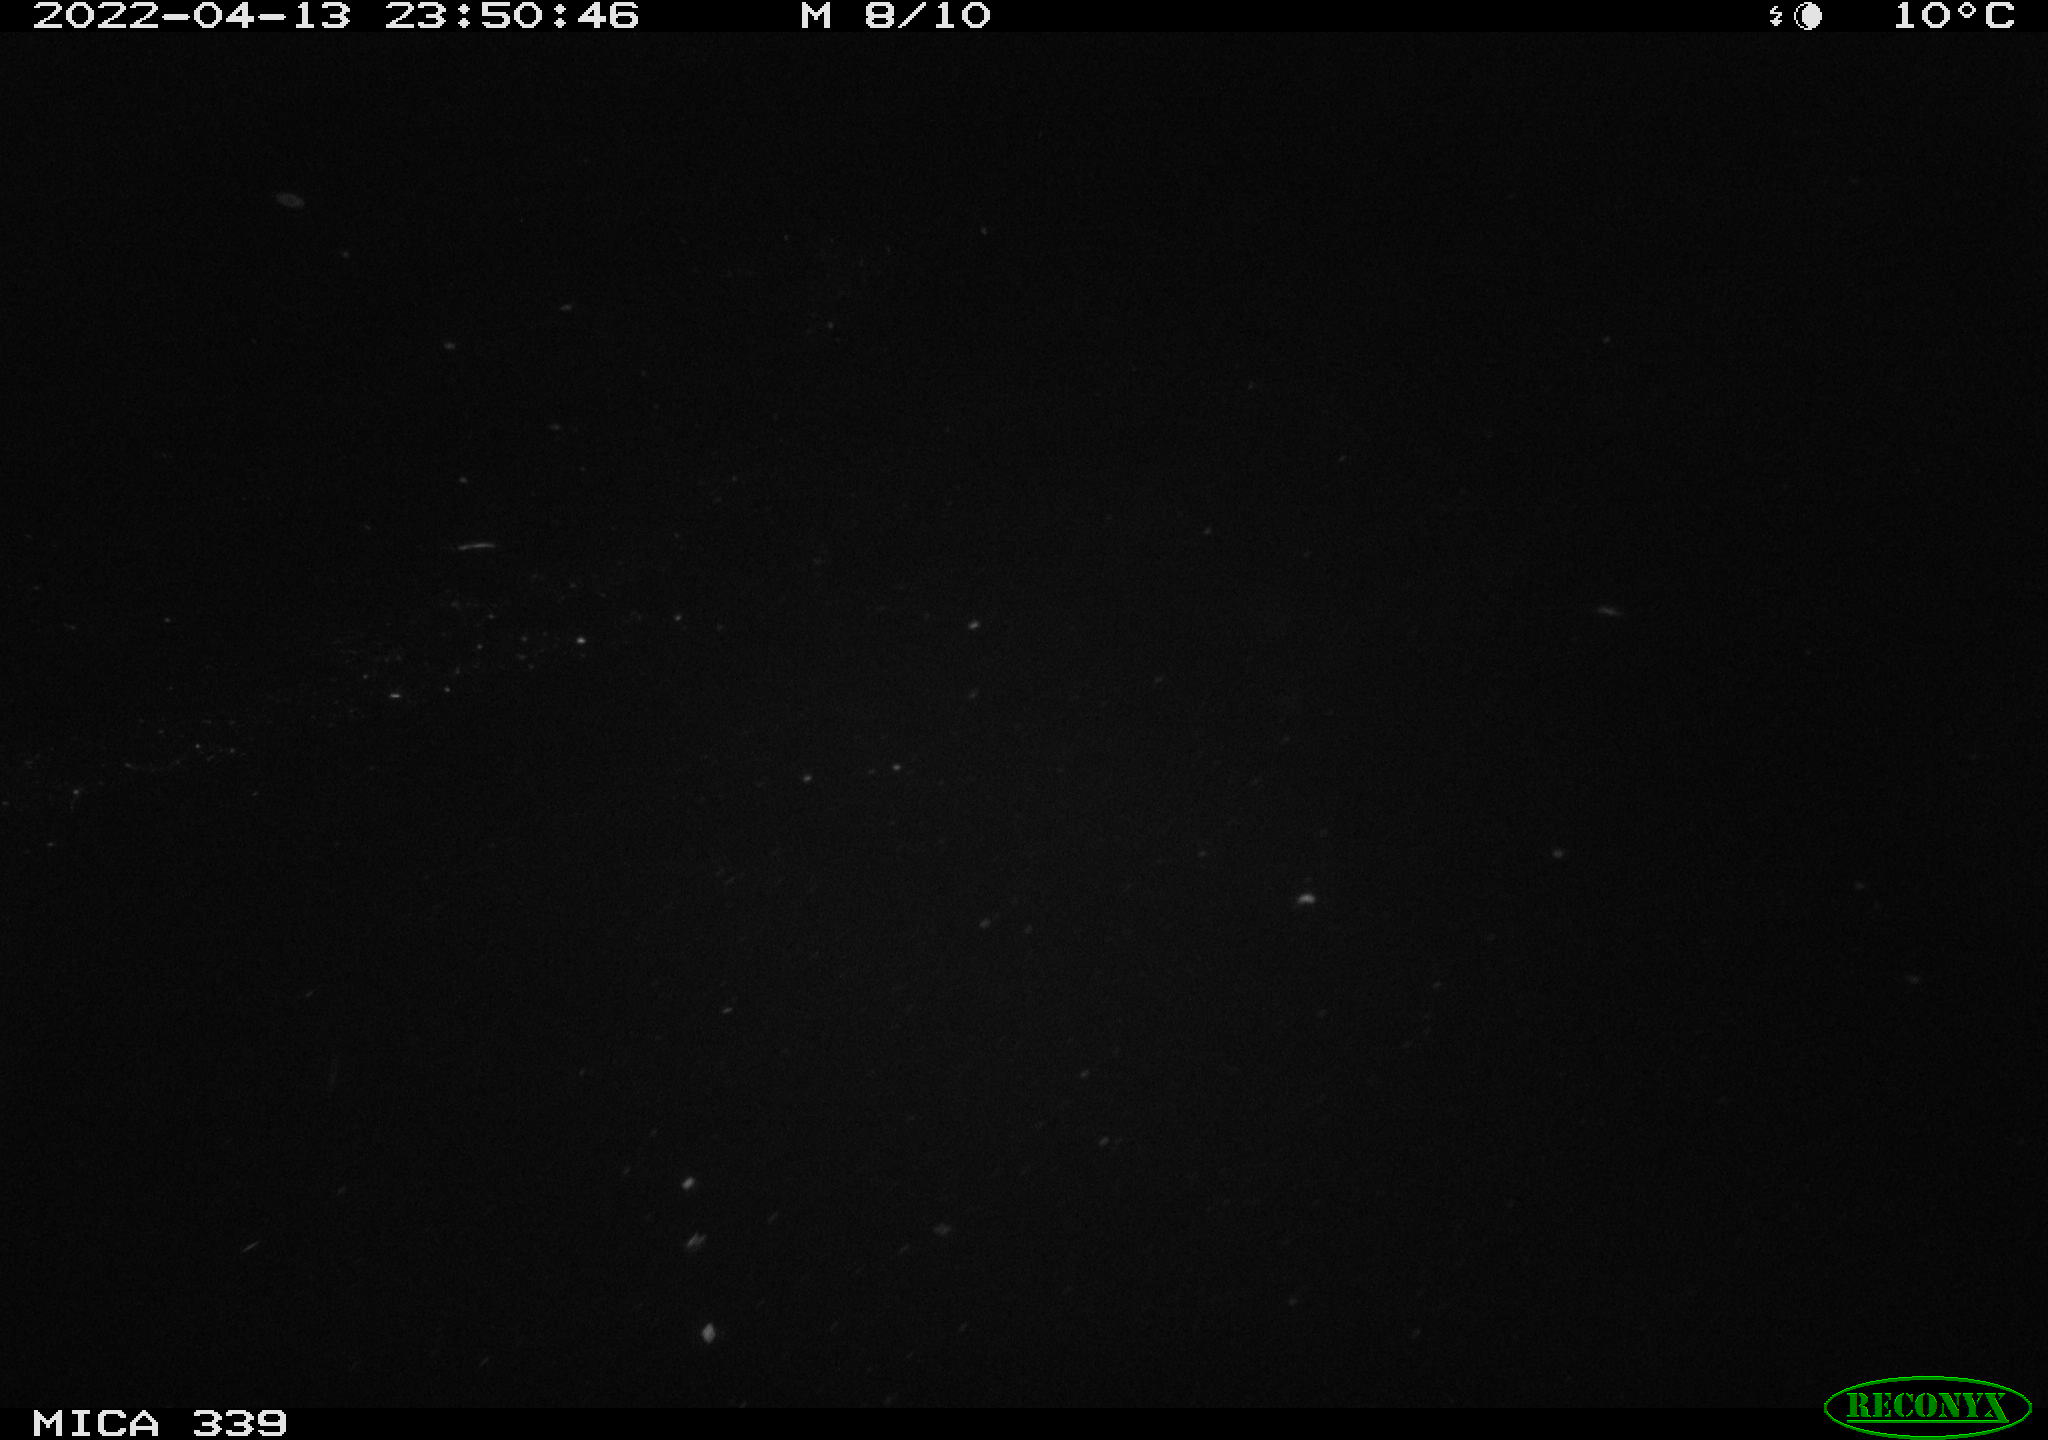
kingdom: Animalia
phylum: Chordata
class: Mammalia
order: Rodentia
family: Cricetidae
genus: Ondatra
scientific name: Ondatra zibethicus
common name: Muskrat
